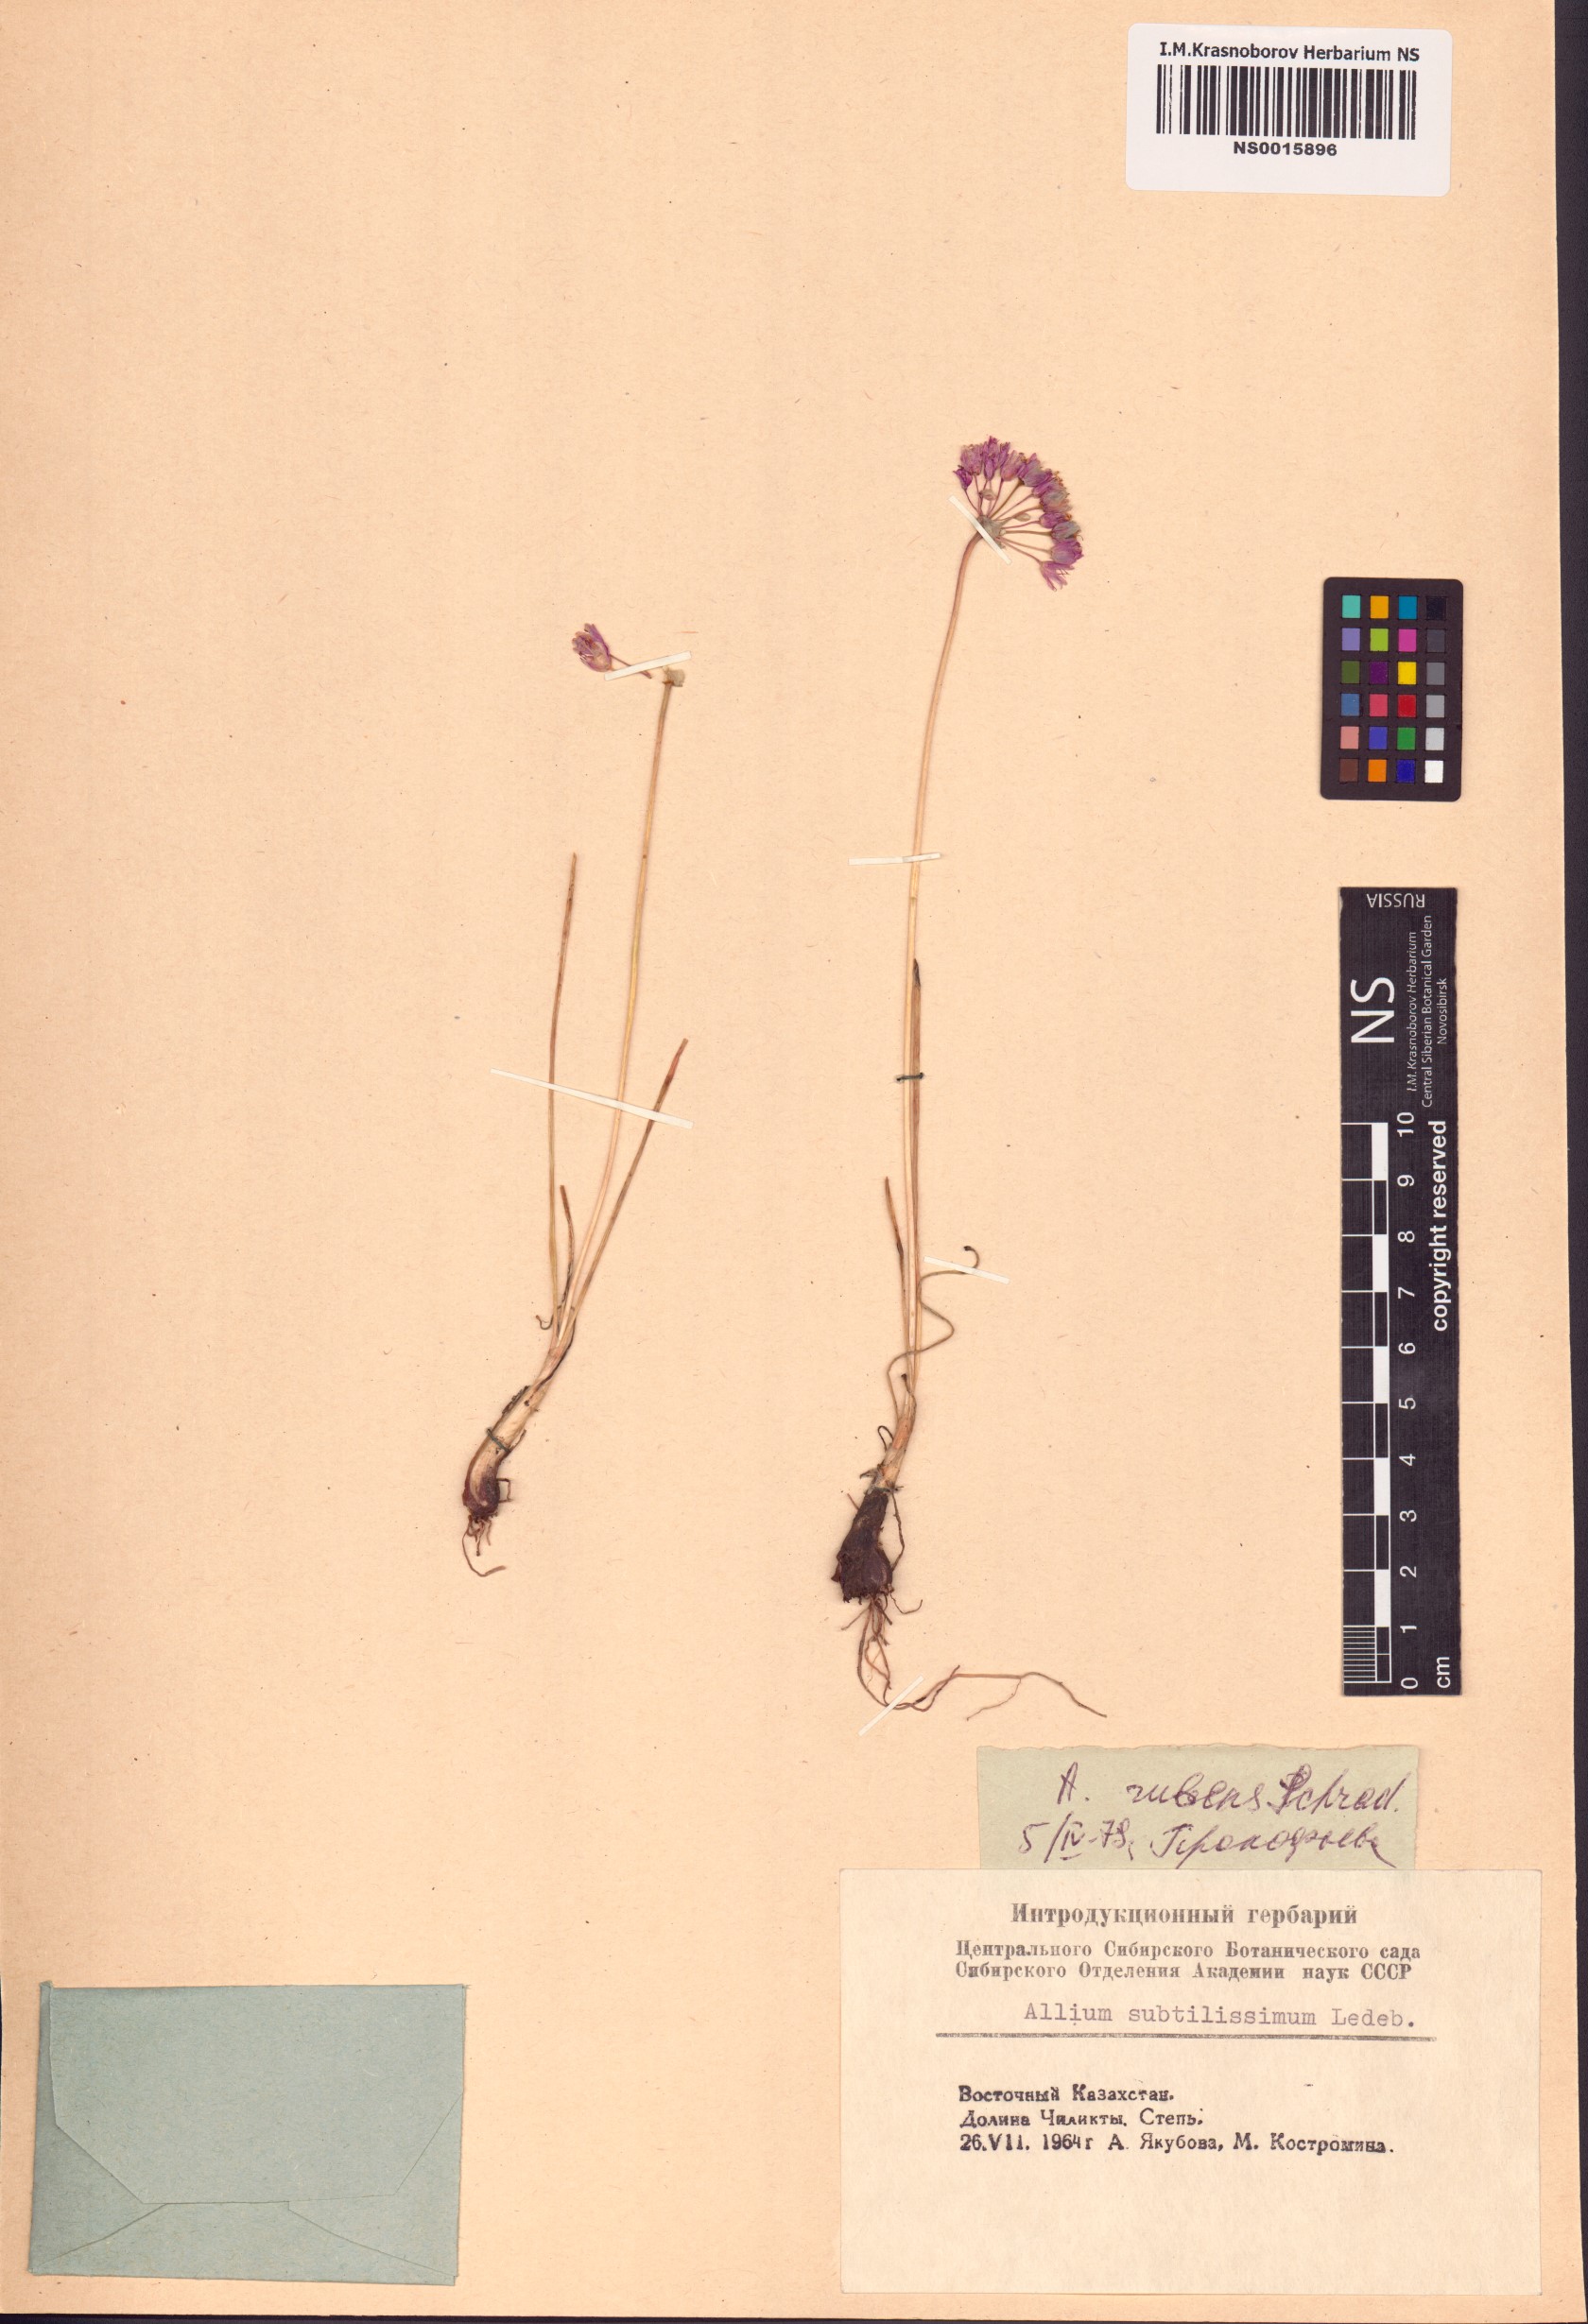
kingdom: Plantae
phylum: Tracheophyta
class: Liliopsida
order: Asparagales
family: Amaryllidaceae
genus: Allium
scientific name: Allium rubens
